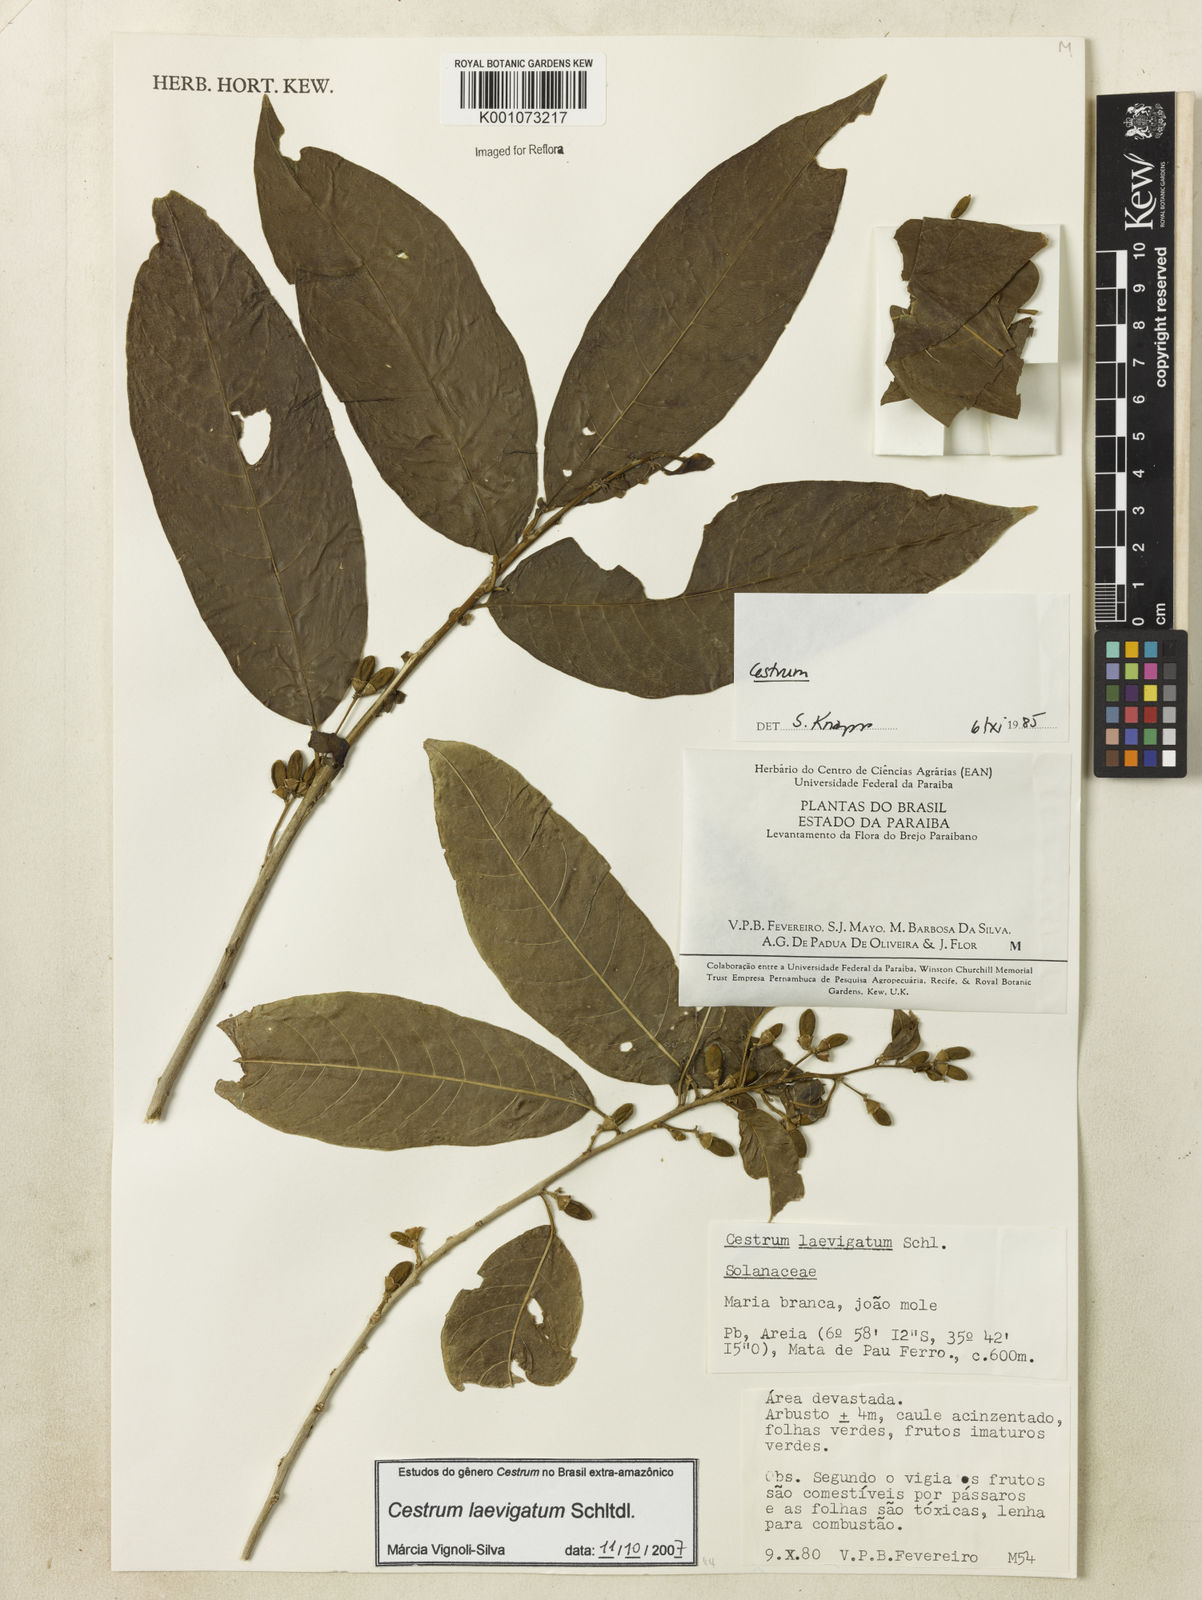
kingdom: Plantae
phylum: Tracheophyta
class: Magnoliopsida
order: Solanales
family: Solanaceae
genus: Cestrum
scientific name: Cestrum laevigatum
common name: Inkberry
